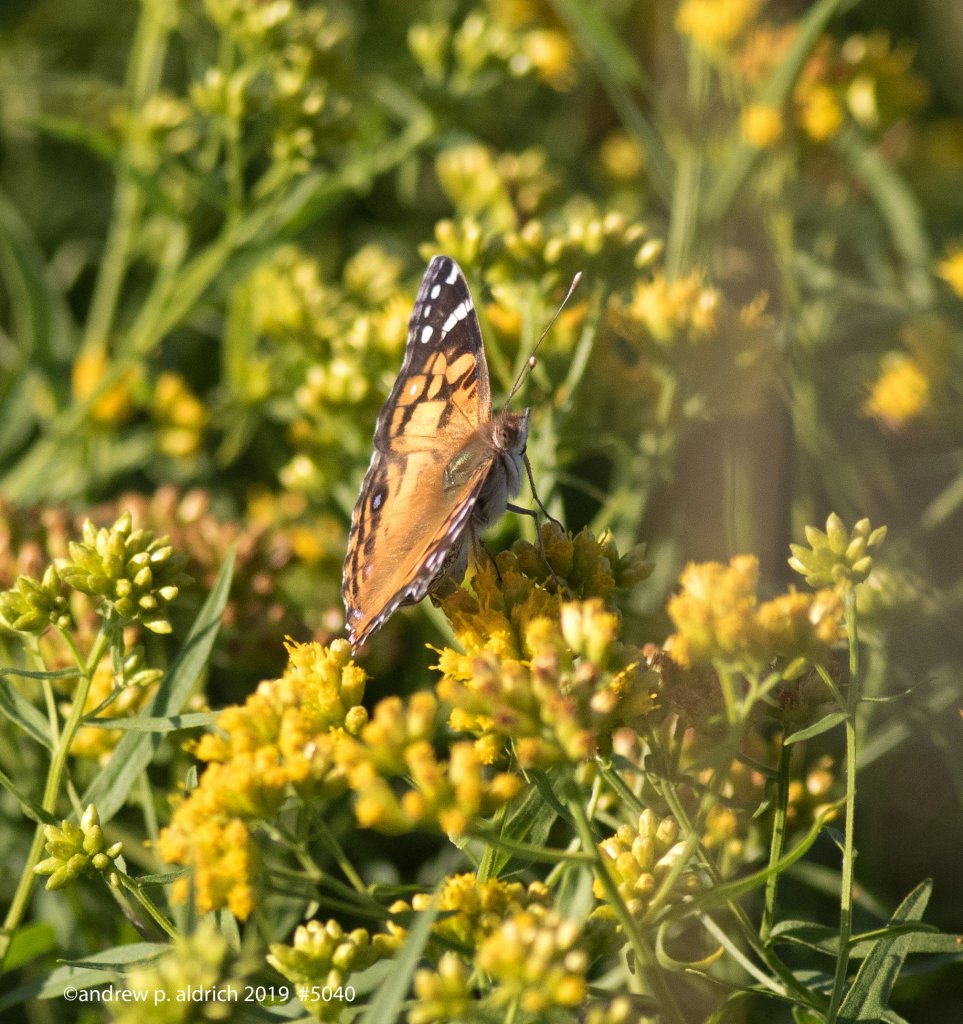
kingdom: Animalia
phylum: Arthropoda
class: Insecta
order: Lepidoptera
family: Nymphalidae
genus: Vanessa
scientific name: Vanessa virginiensis
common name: American Lady
